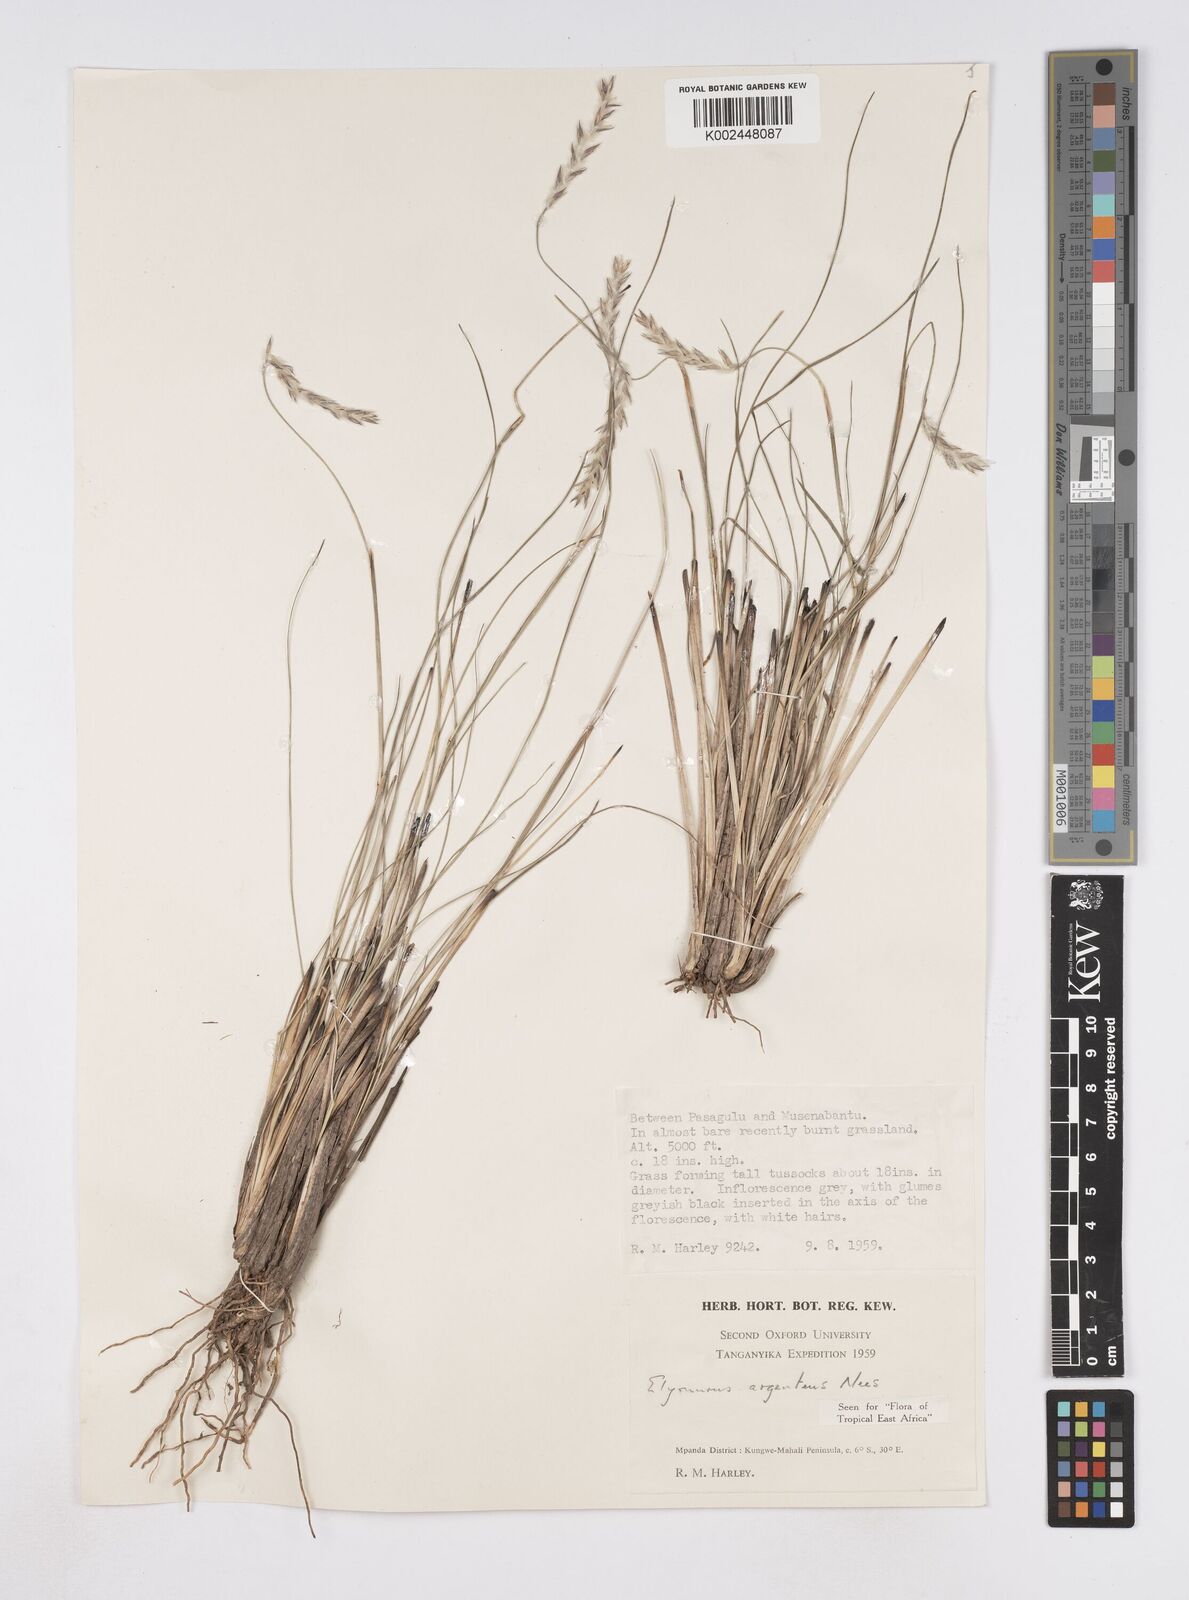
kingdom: Plantae
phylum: Tracheophyta
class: Liliopsida
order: Poales
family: Poaceae
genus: Elionurus
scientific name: Elionurus muticus
